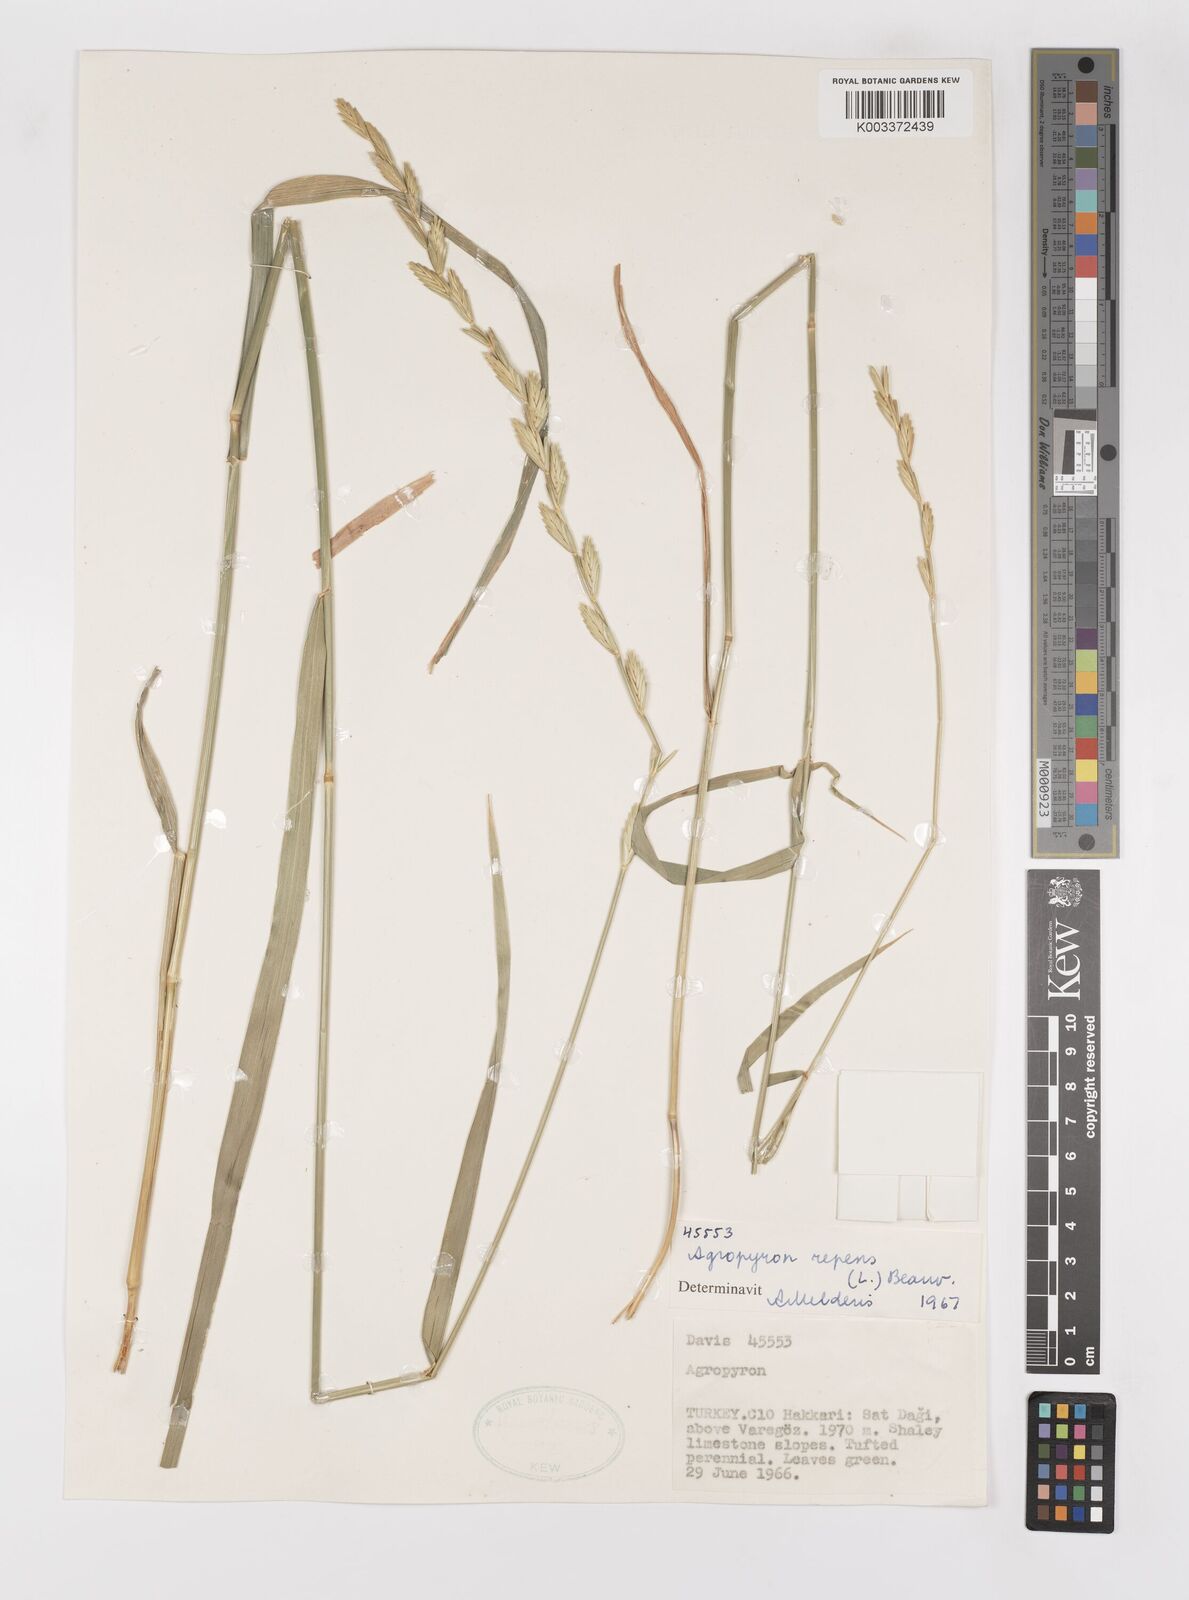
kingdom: Plantae
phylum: Tracheophyta
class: Liliopsida
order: Poales
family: Poaceae
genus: Elymus
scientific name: Elymus repens
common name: Quackgrass
